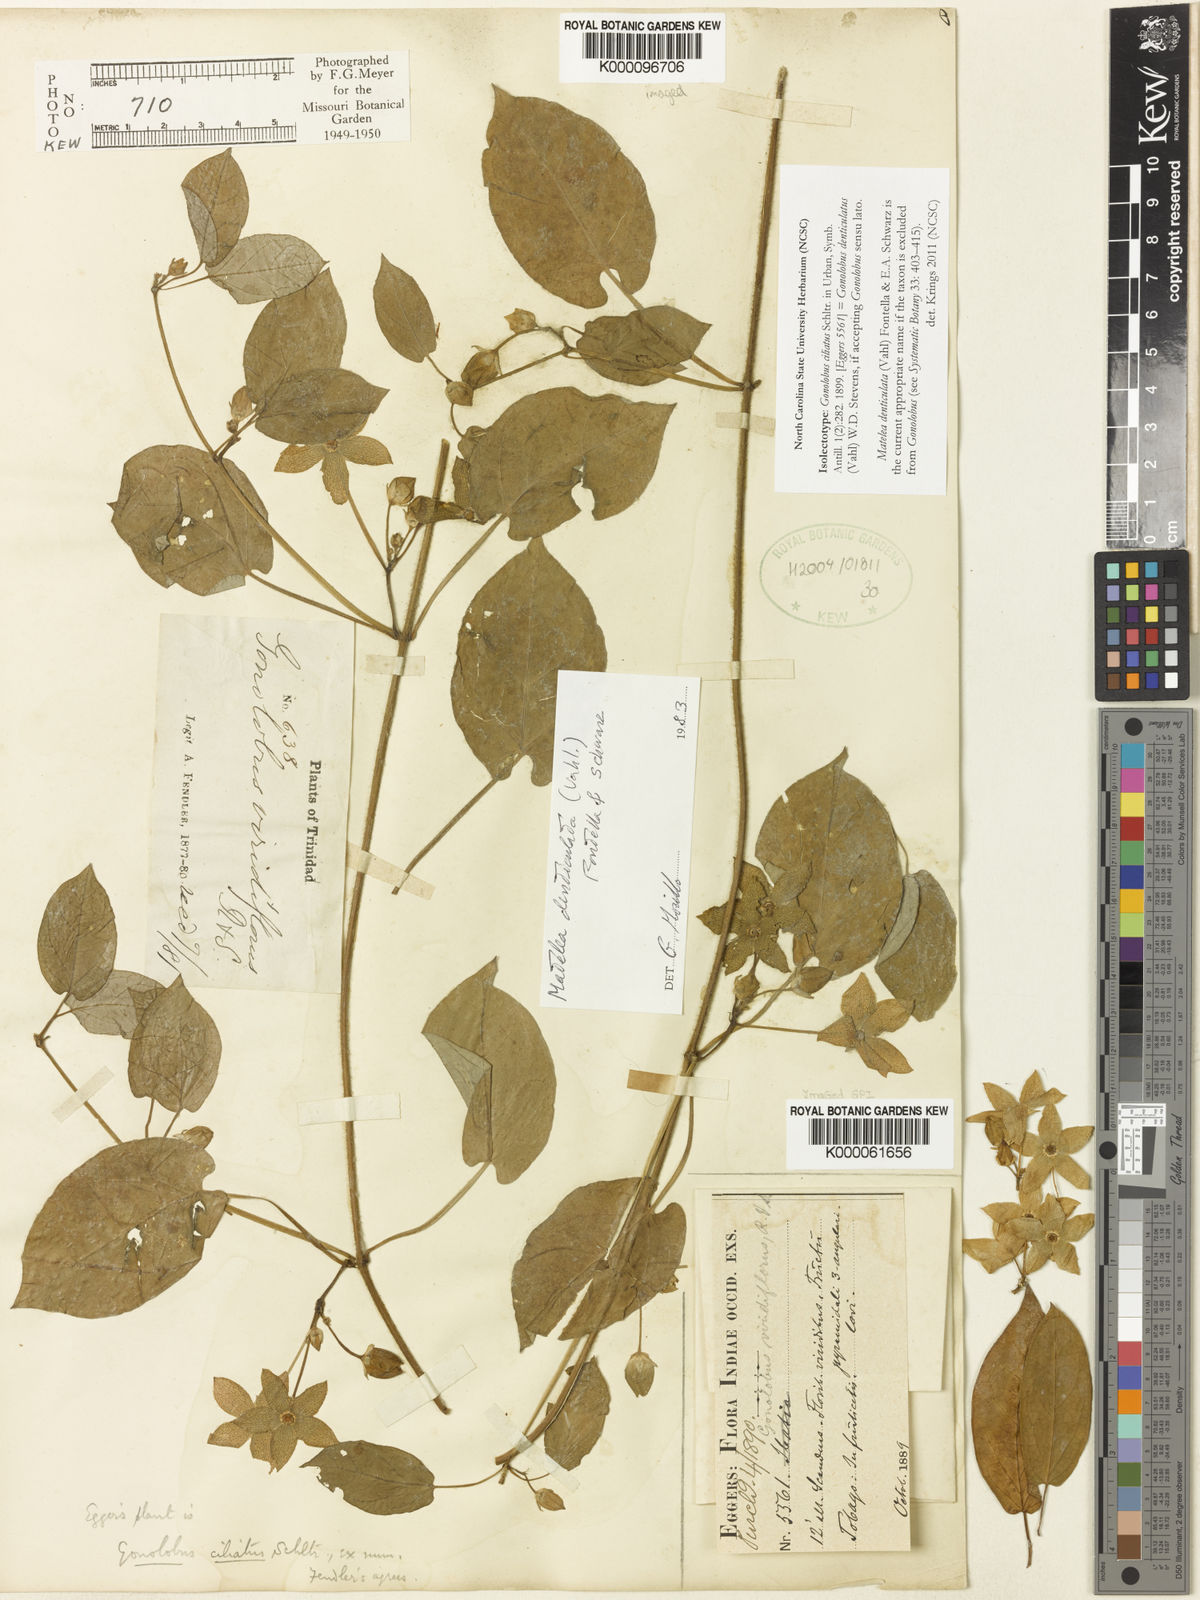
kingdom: Plantae
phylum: Tracheophyta
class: Magnoliopsida
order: Gentianales
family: Apocynaceae
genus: Chloropetalum
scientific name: Chloropetalum denticulatum
